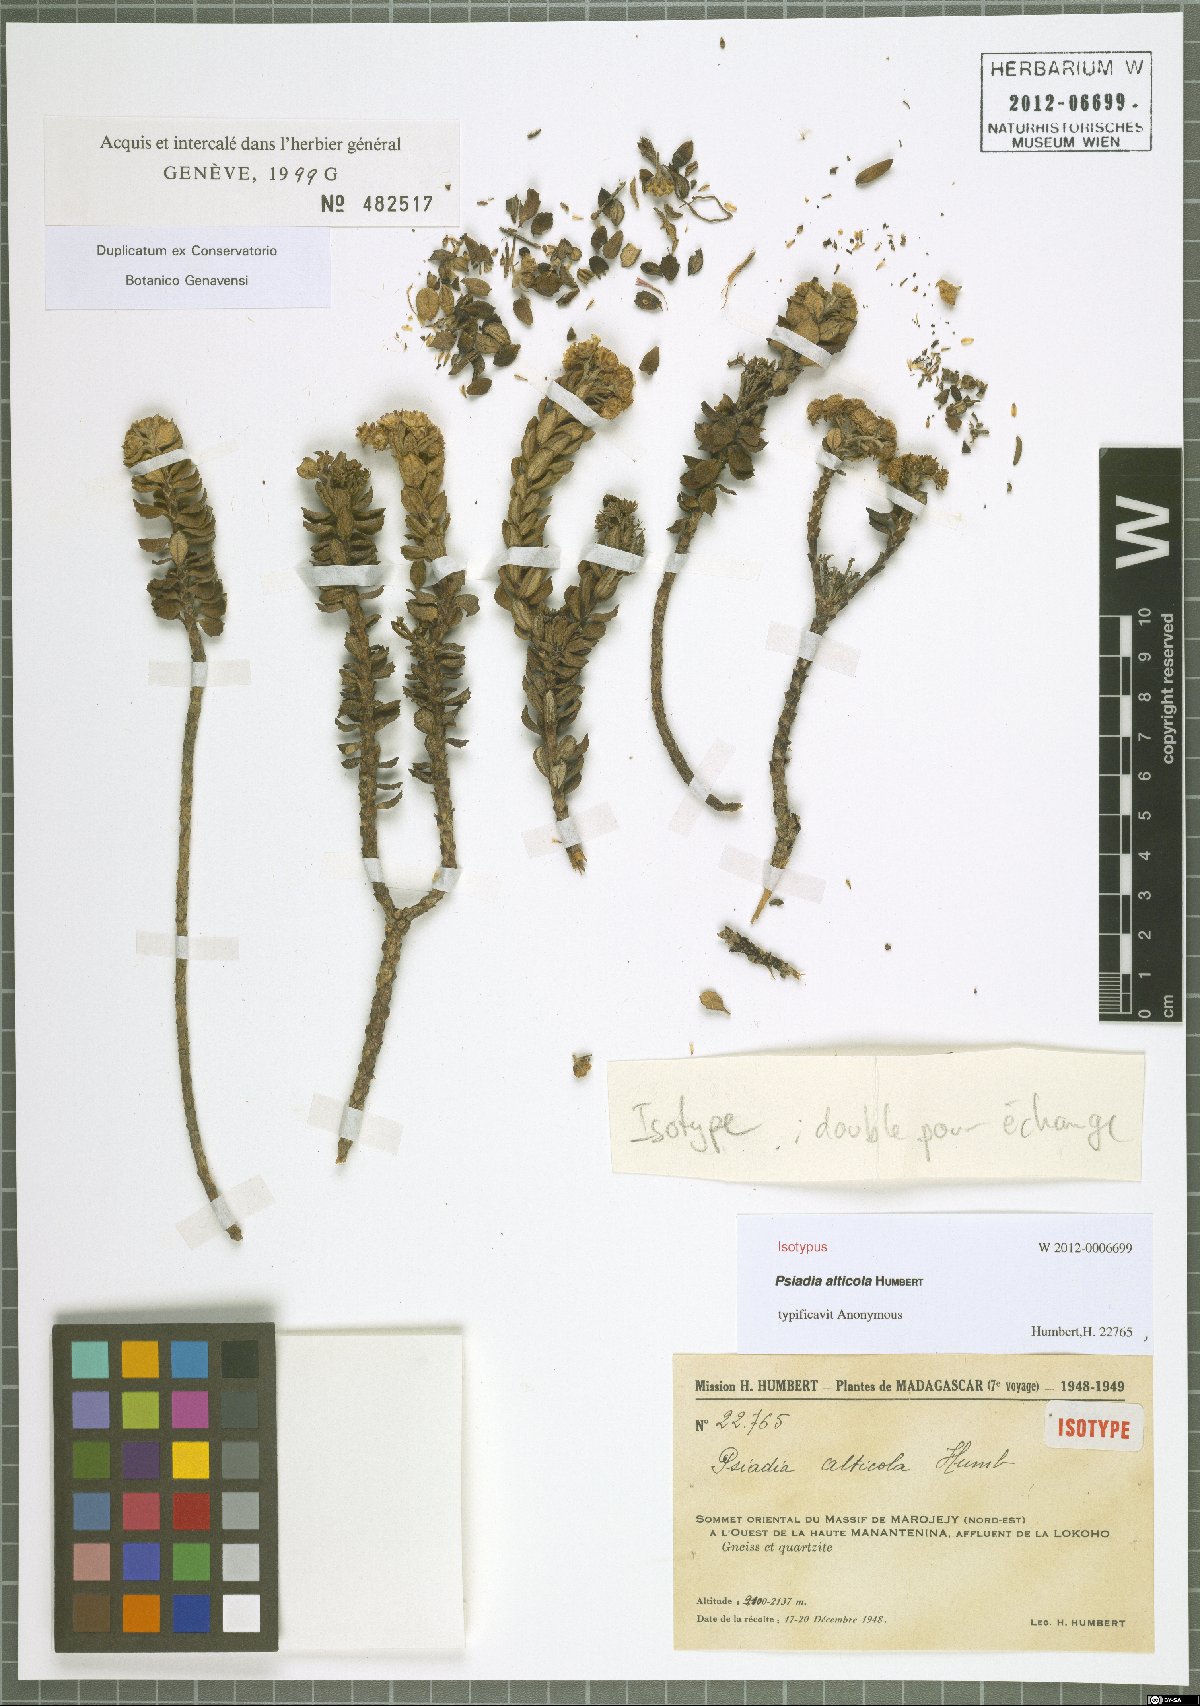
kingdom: Plantae
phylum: Tracheophyta
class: Magnoliopsida
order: Asterales
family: Asteraceae
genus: Psiadia
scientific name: Psiadia alticola
